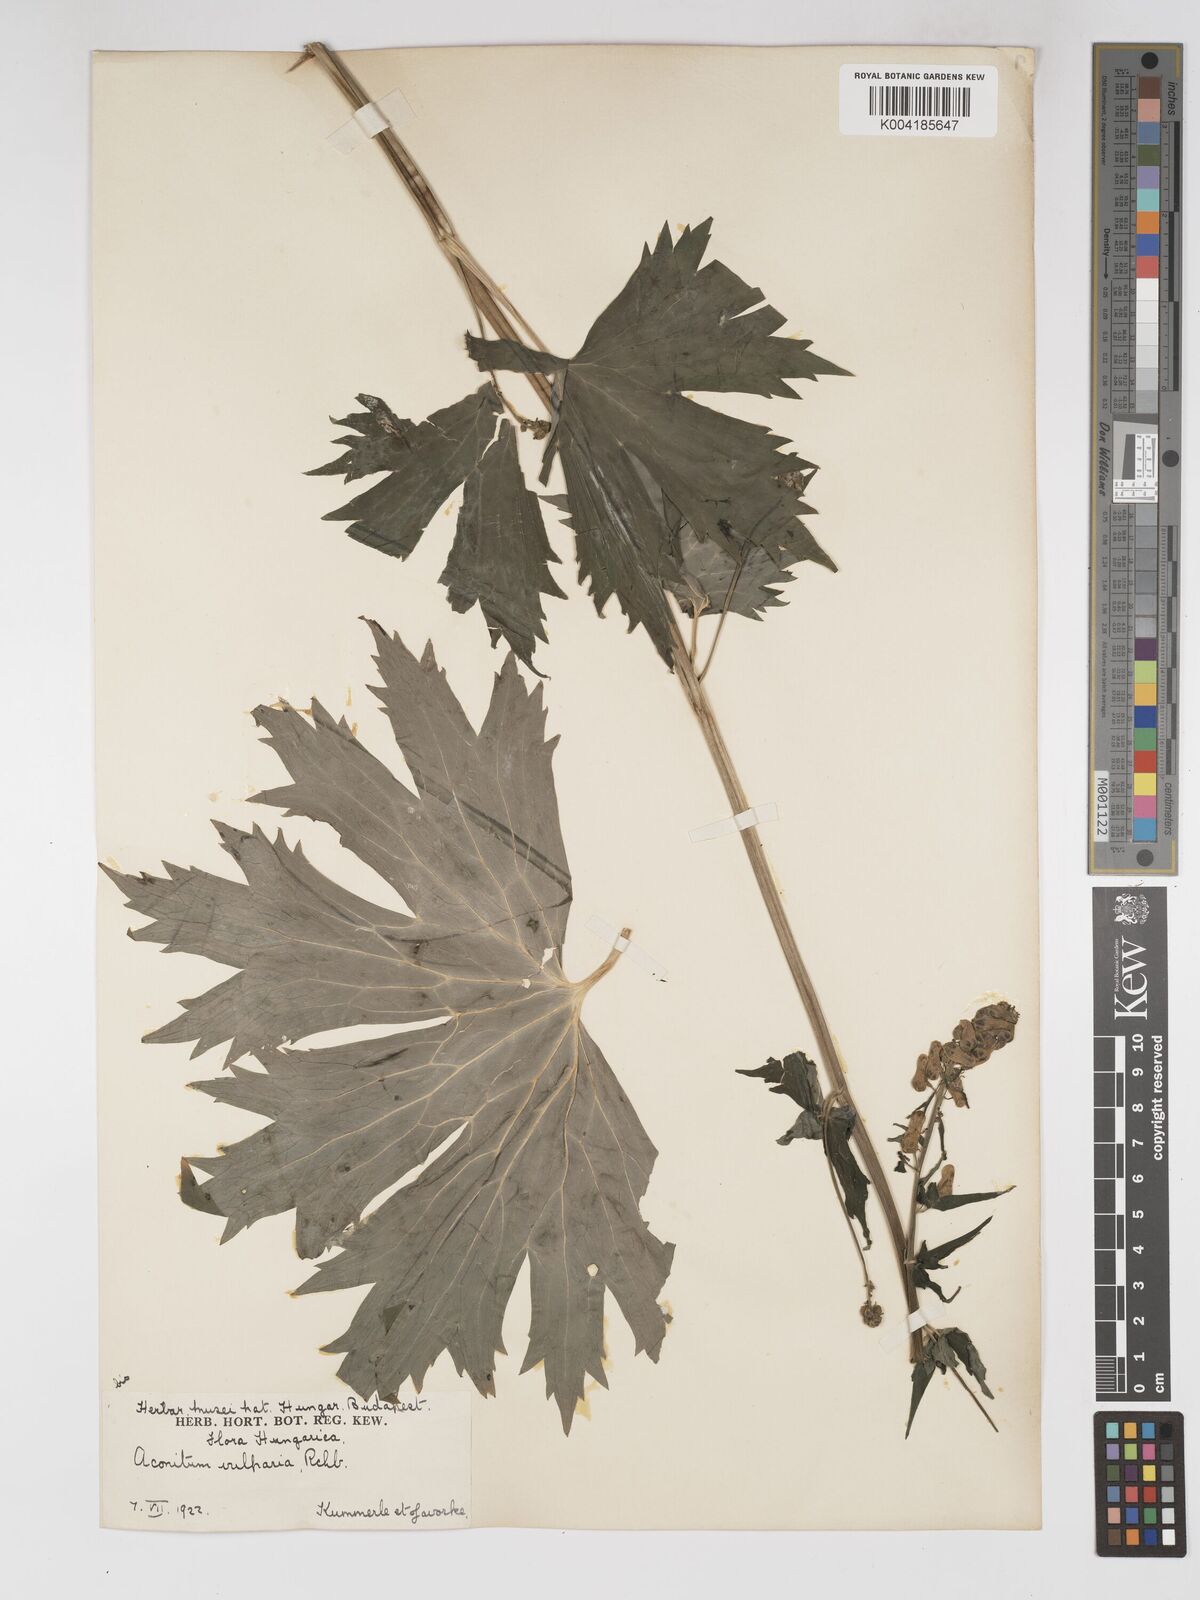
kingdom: Plantae
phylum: Tracheophyta
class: Magnoliopsida
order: Ranunculales
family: Ranunculaceae
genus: Aconitum
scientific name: Aconitum lycoctonum
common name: Wolf's-bane
